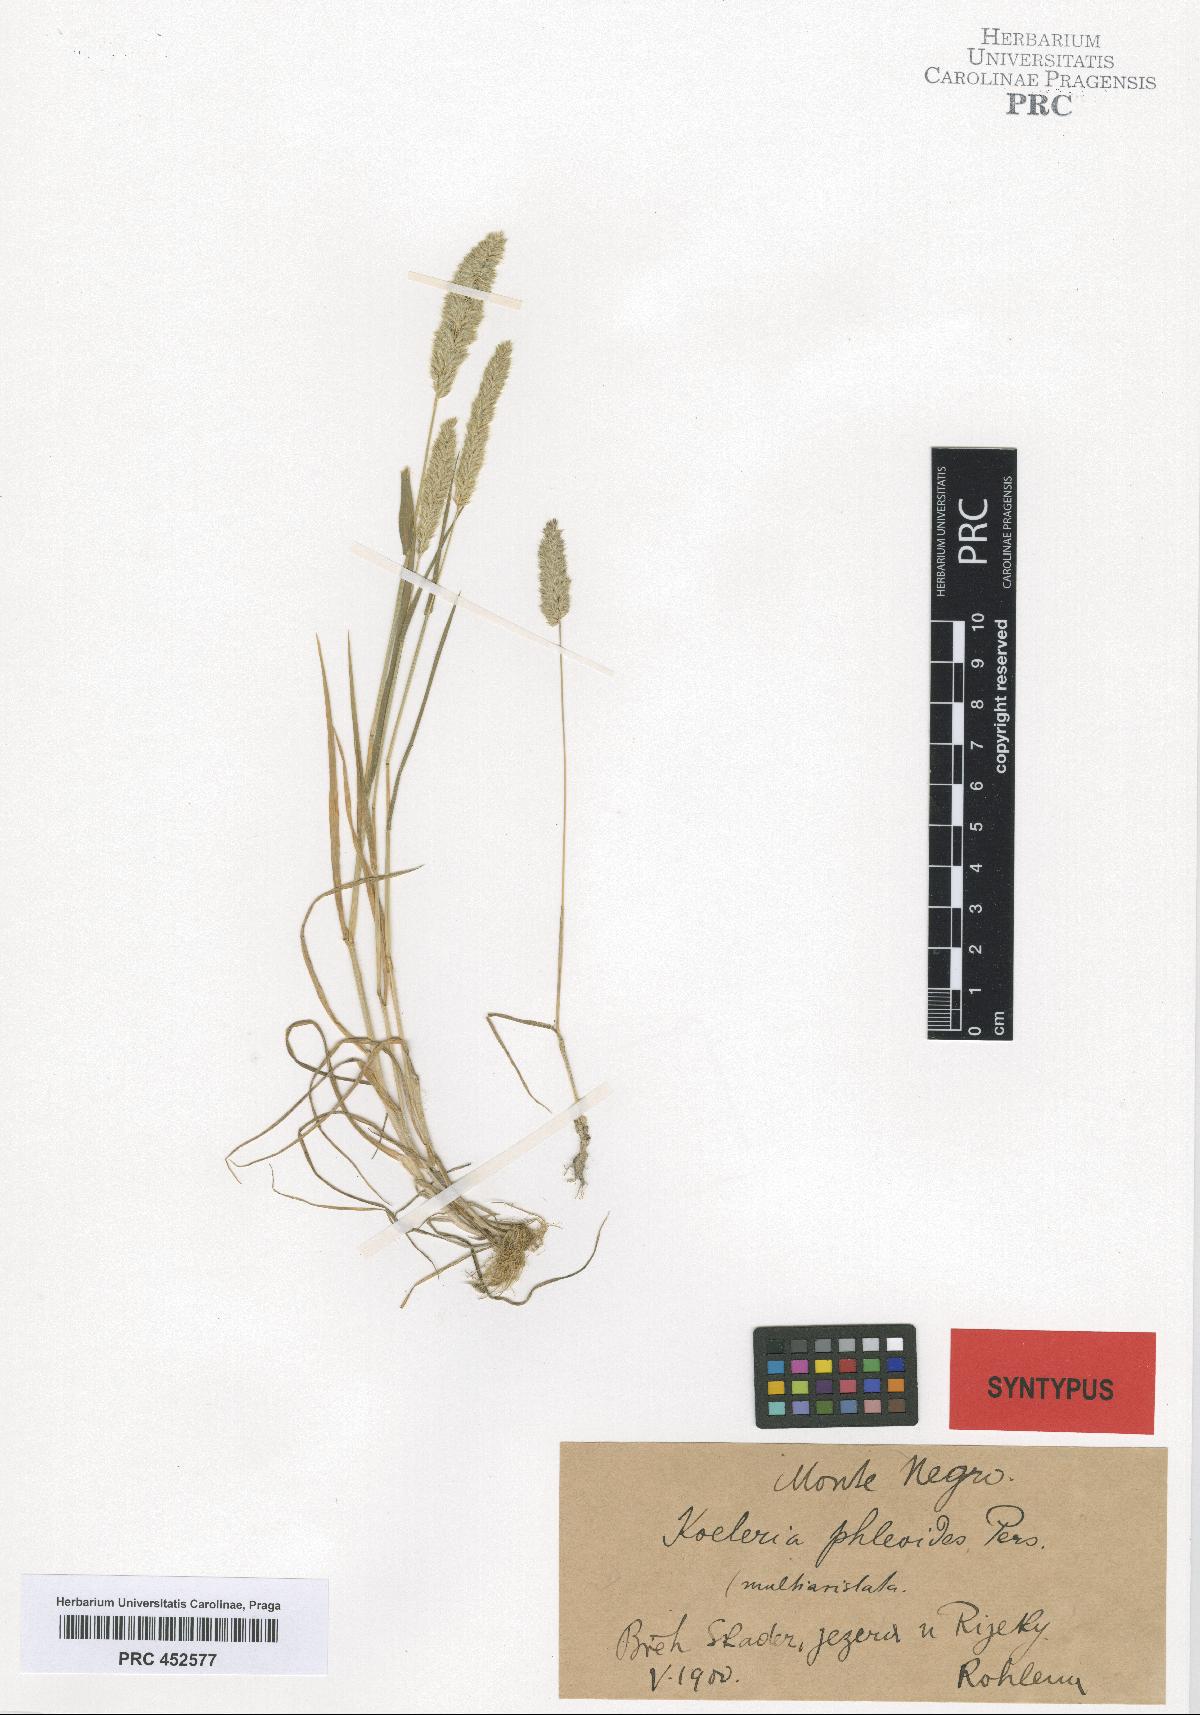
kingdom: Plantae
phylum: Tracheophyta
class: Liliopsida
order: Poales
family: Poaceae
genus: Rostraria
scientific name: Rostraria cristata
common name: Mediterranean hair-grass
